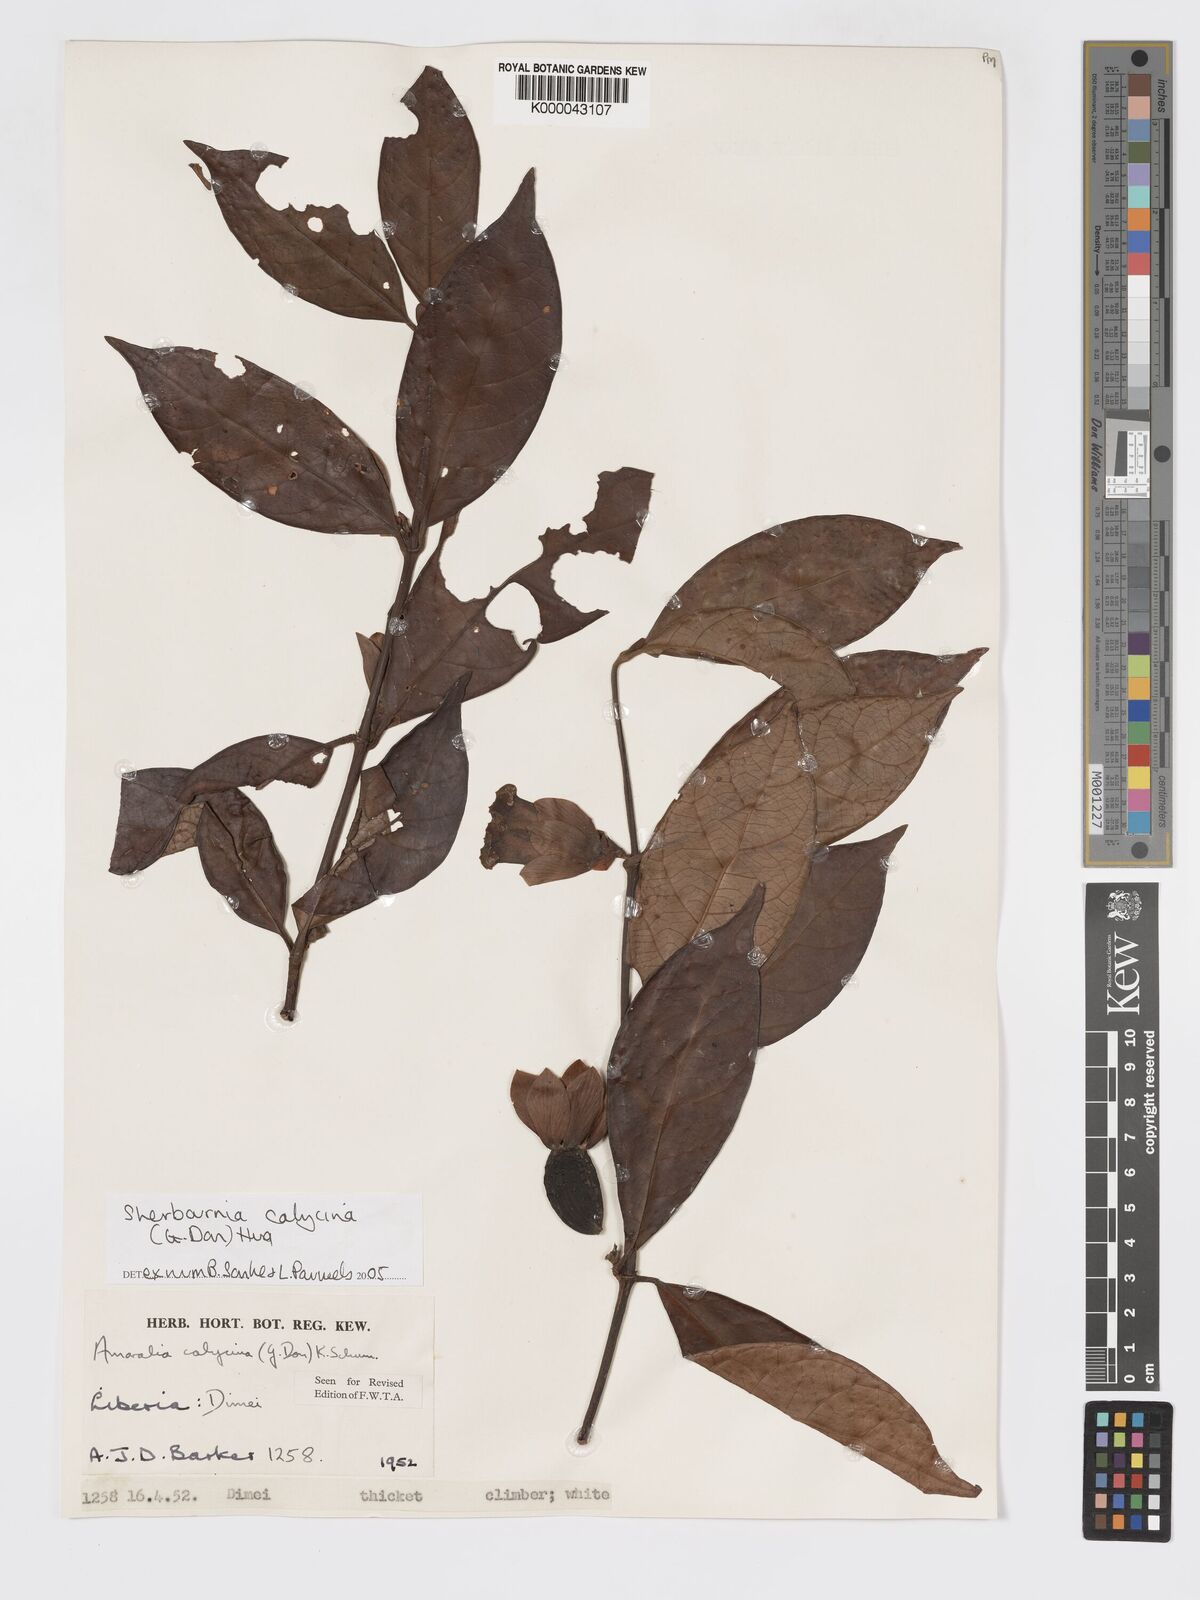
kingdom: Plantae
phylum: Tracheophyta
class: Magnoliopsida
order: Gentianales
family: Rubiaceae
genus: Sherbournia
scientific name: Sherbournia calycina
